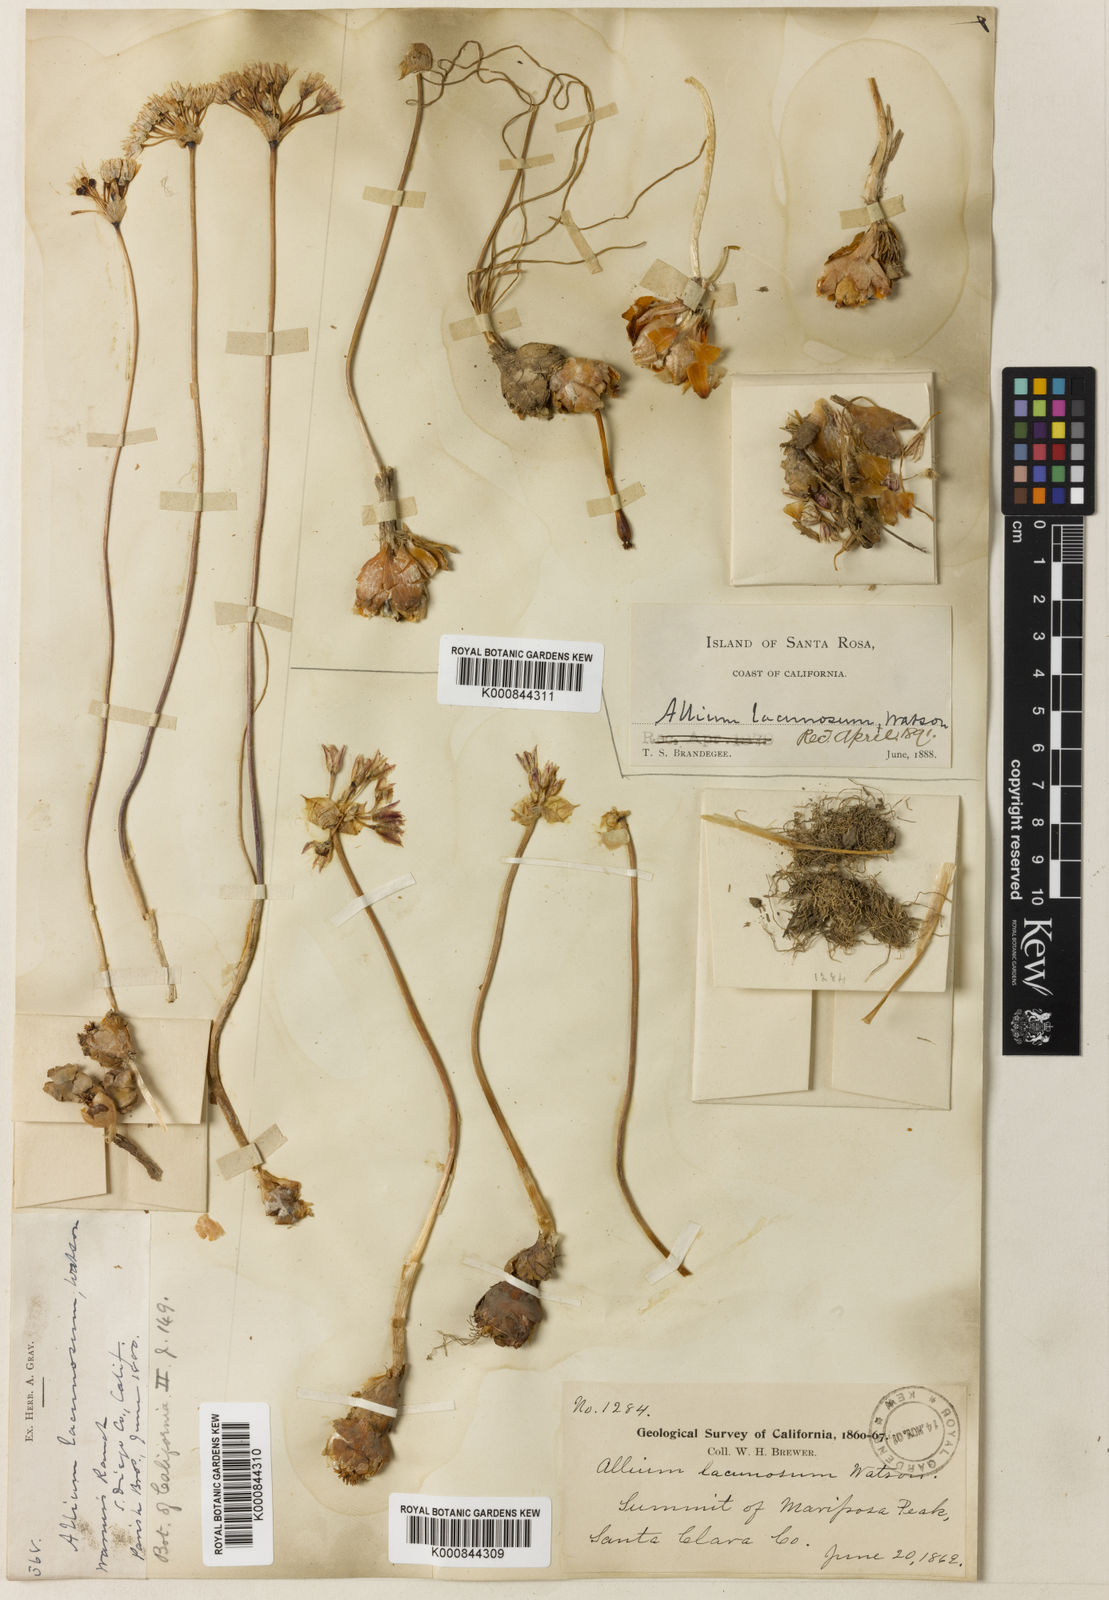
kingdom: Plantae
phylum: Tracheophyta
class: Liliopsida
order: Asparagales
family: Amaryllidaceae
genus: Allium
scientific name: Allium lacunosum
